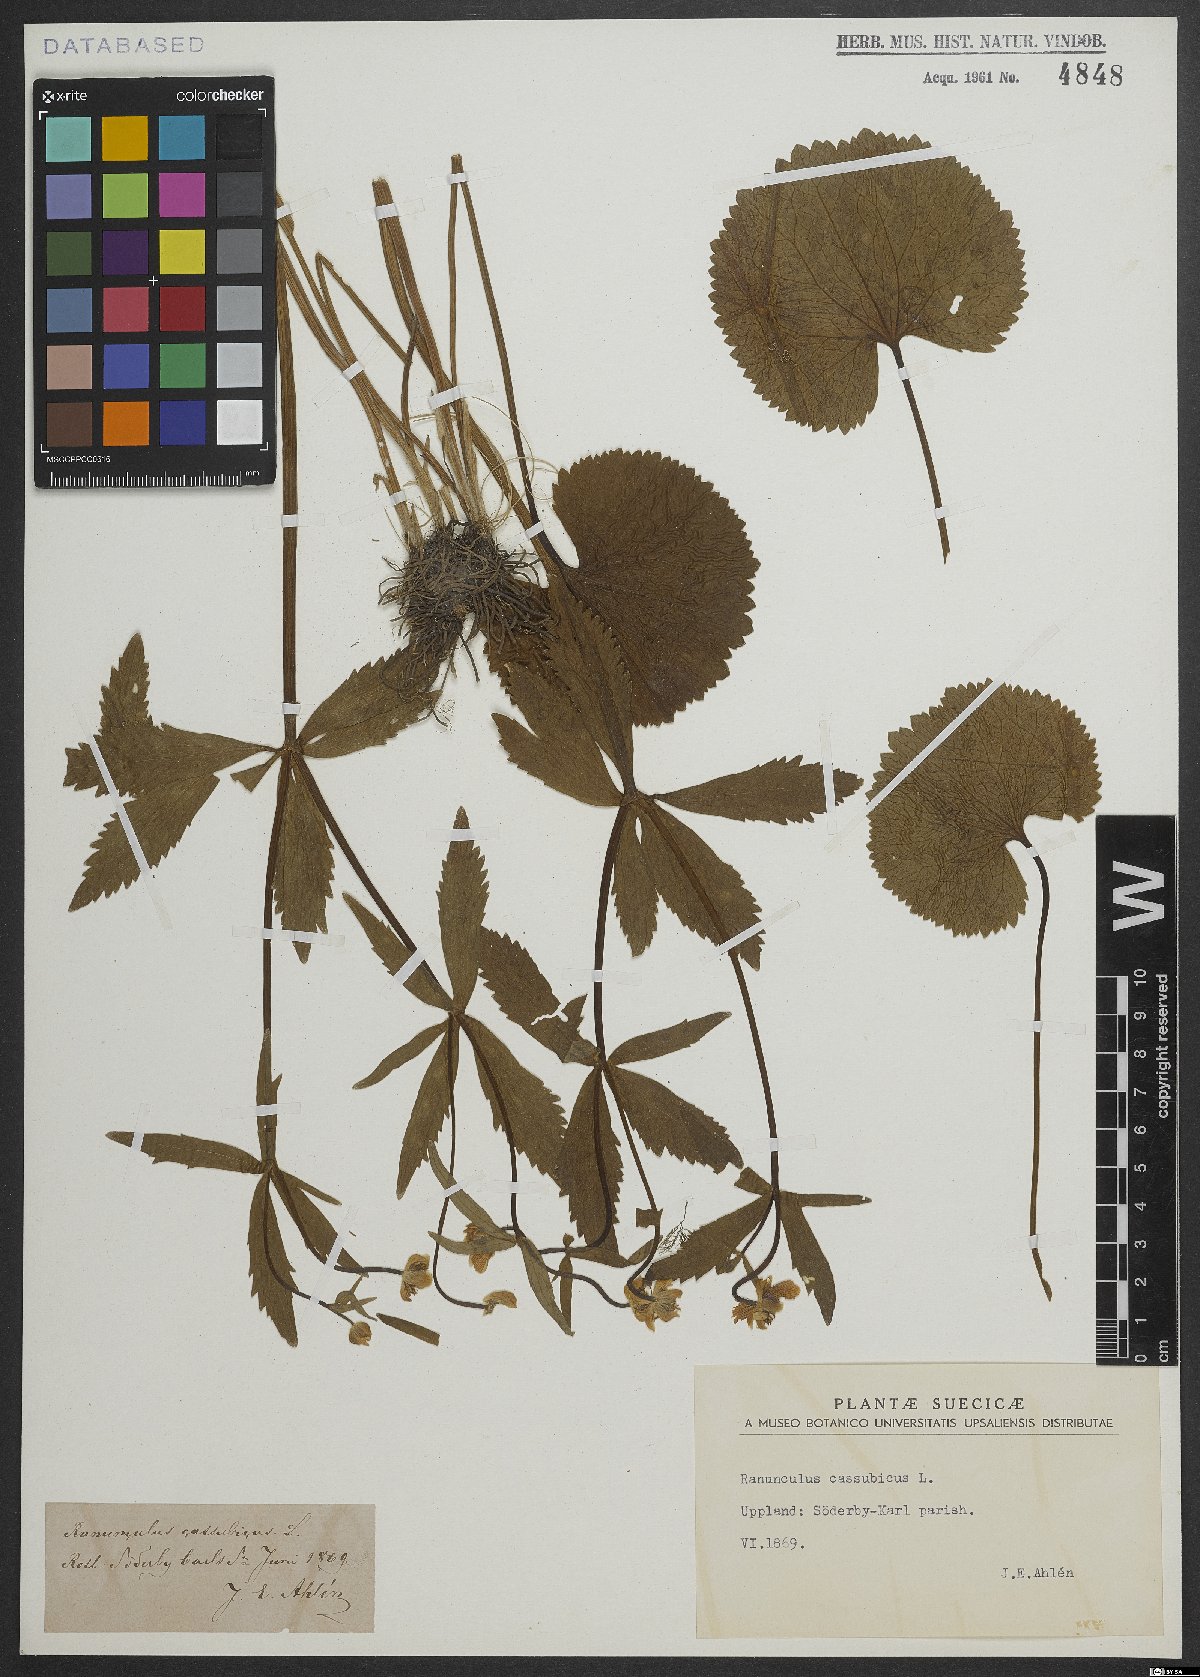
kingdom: Plantae
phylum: Tracheophyta
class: Magnoliopsida
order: Ranunculales
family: Ranunculaceae
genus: Ranunculus
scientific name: Ranunculus cassubicus
